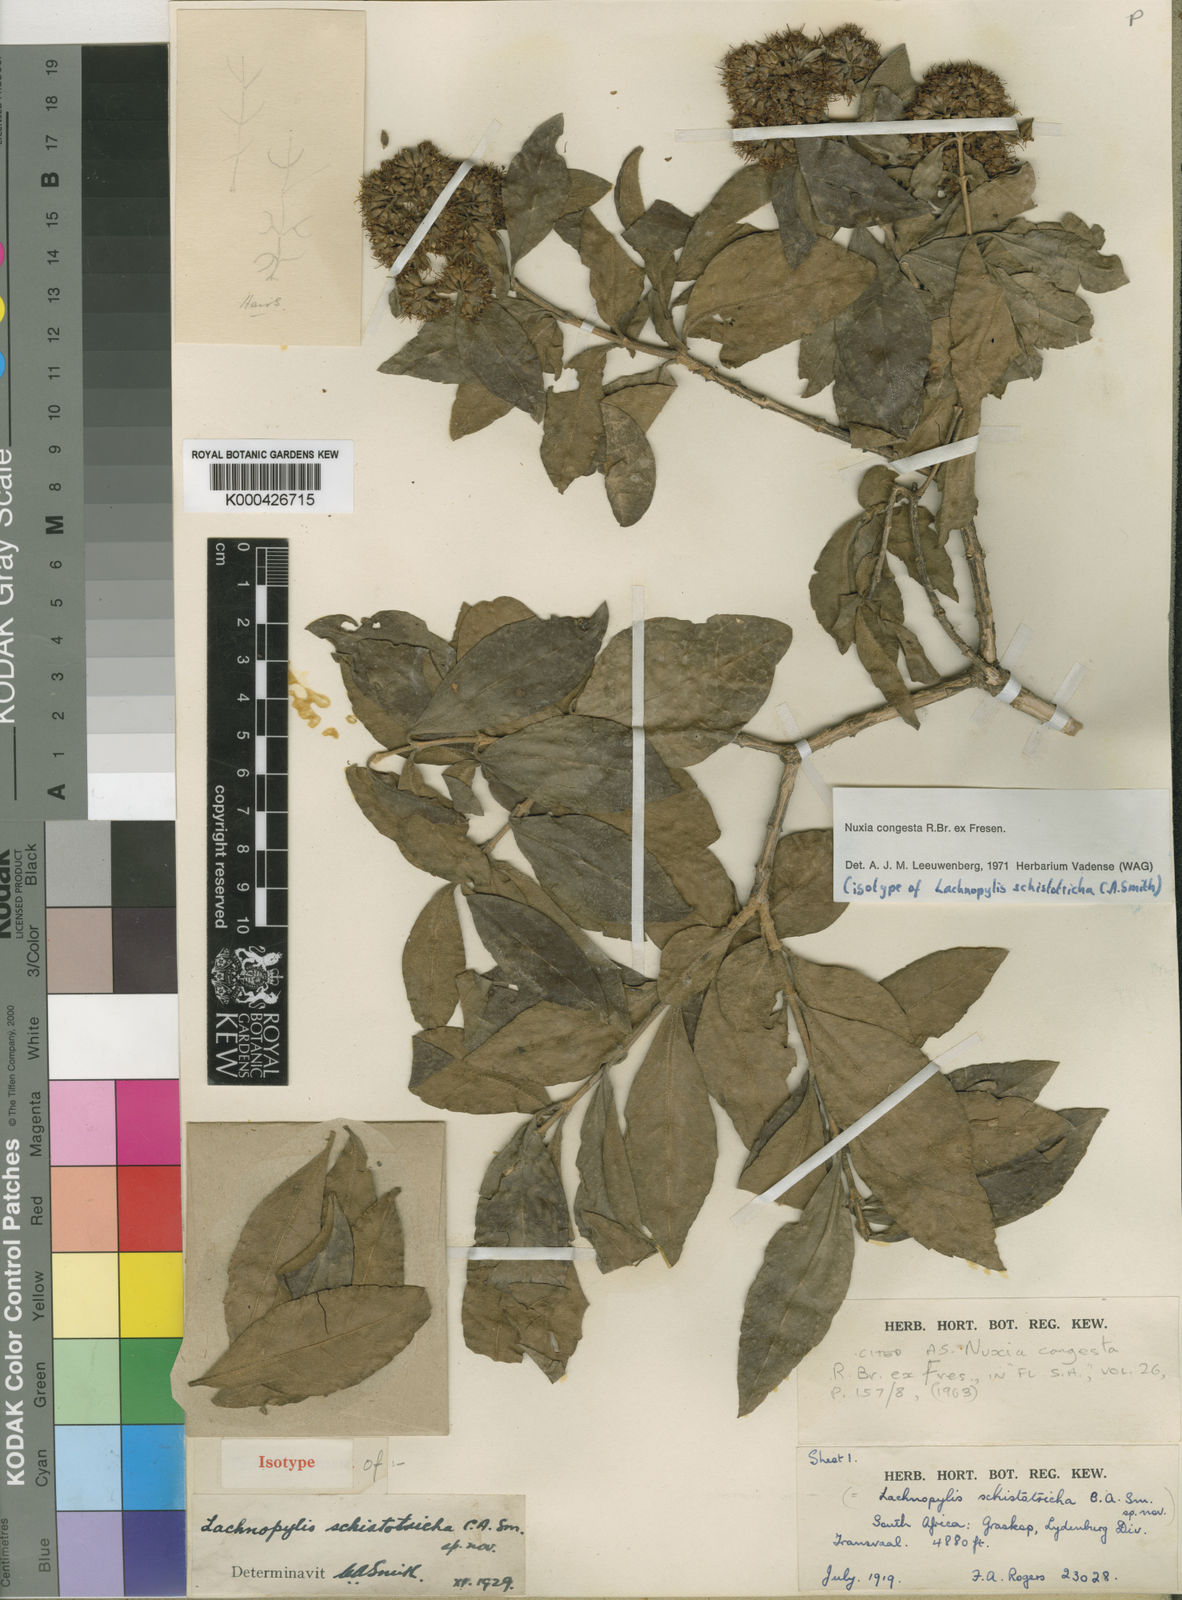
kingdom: Plantae
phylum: Tracheophyta
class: Magnoliopsida
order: Lamiales
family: Stilbaceae
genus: Nuxia
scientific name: Nuxia congesta
